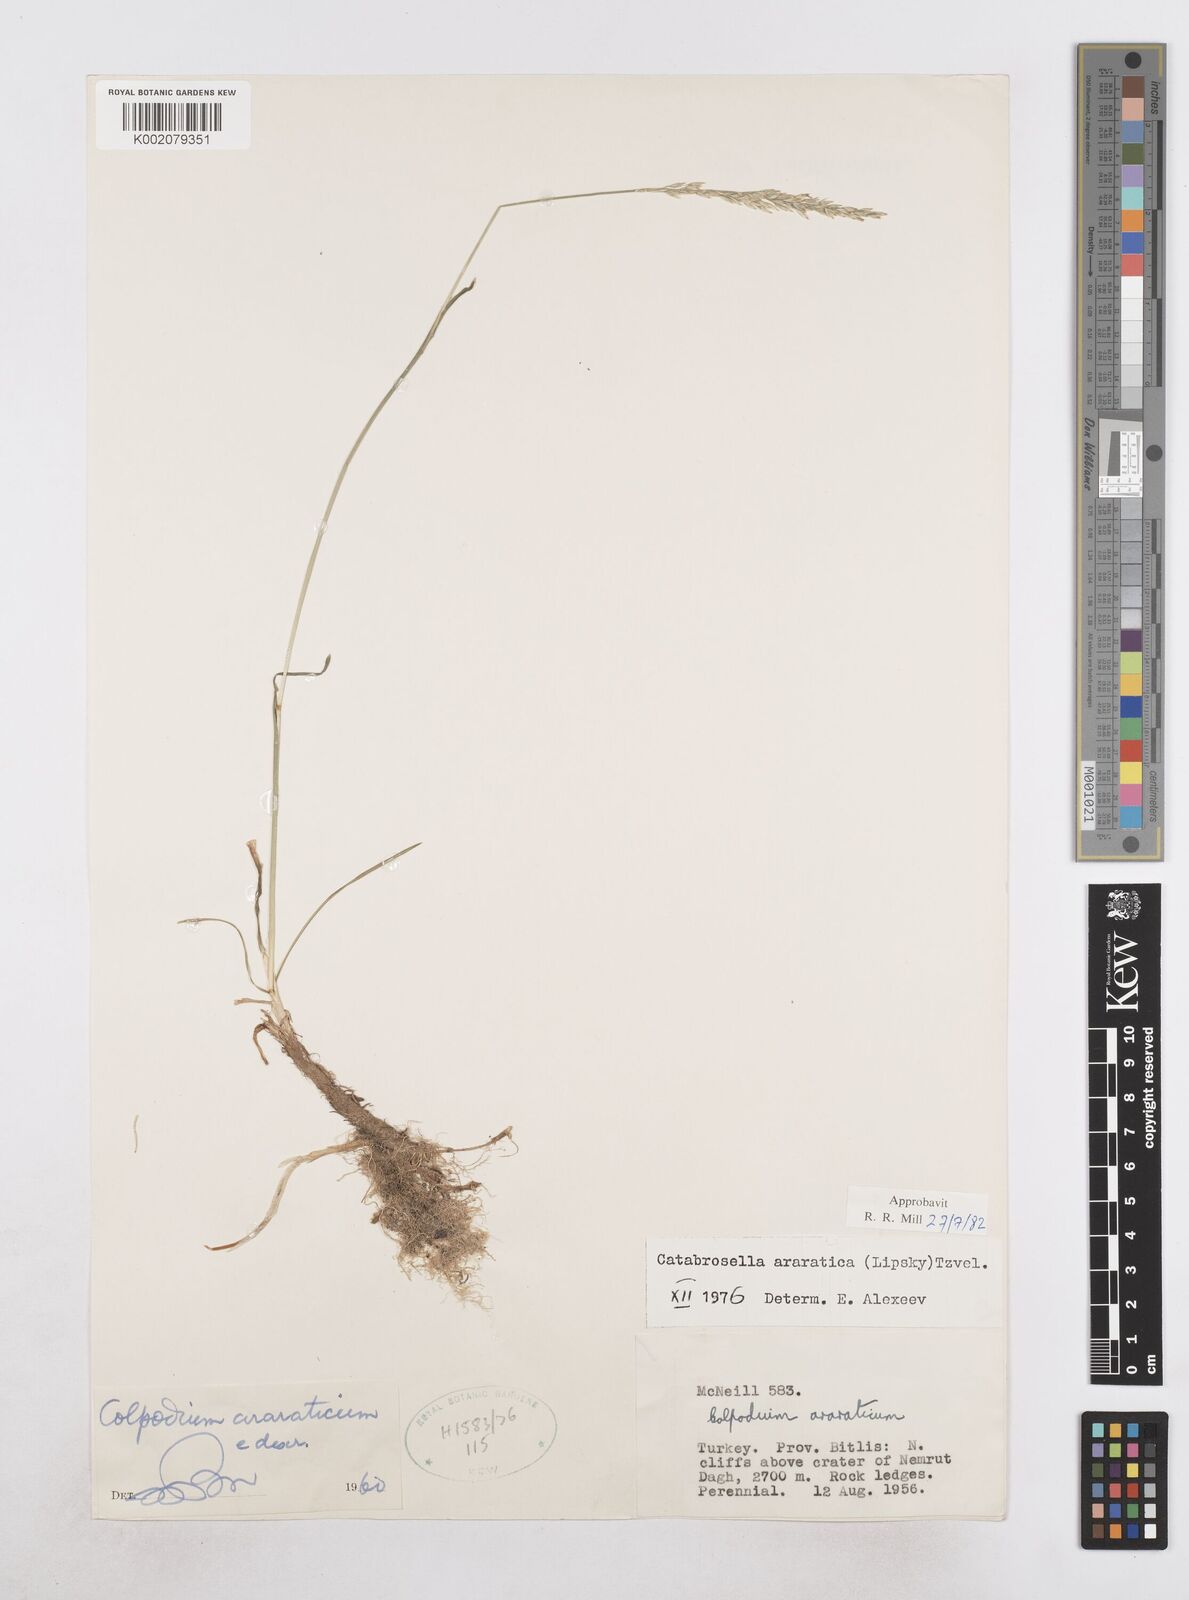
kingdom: Plantae
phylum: Tracheophyta
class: Liliopsida
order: Poales
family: Poaceae
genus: Hyalopodium
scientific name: Hyalopodium araraticum
